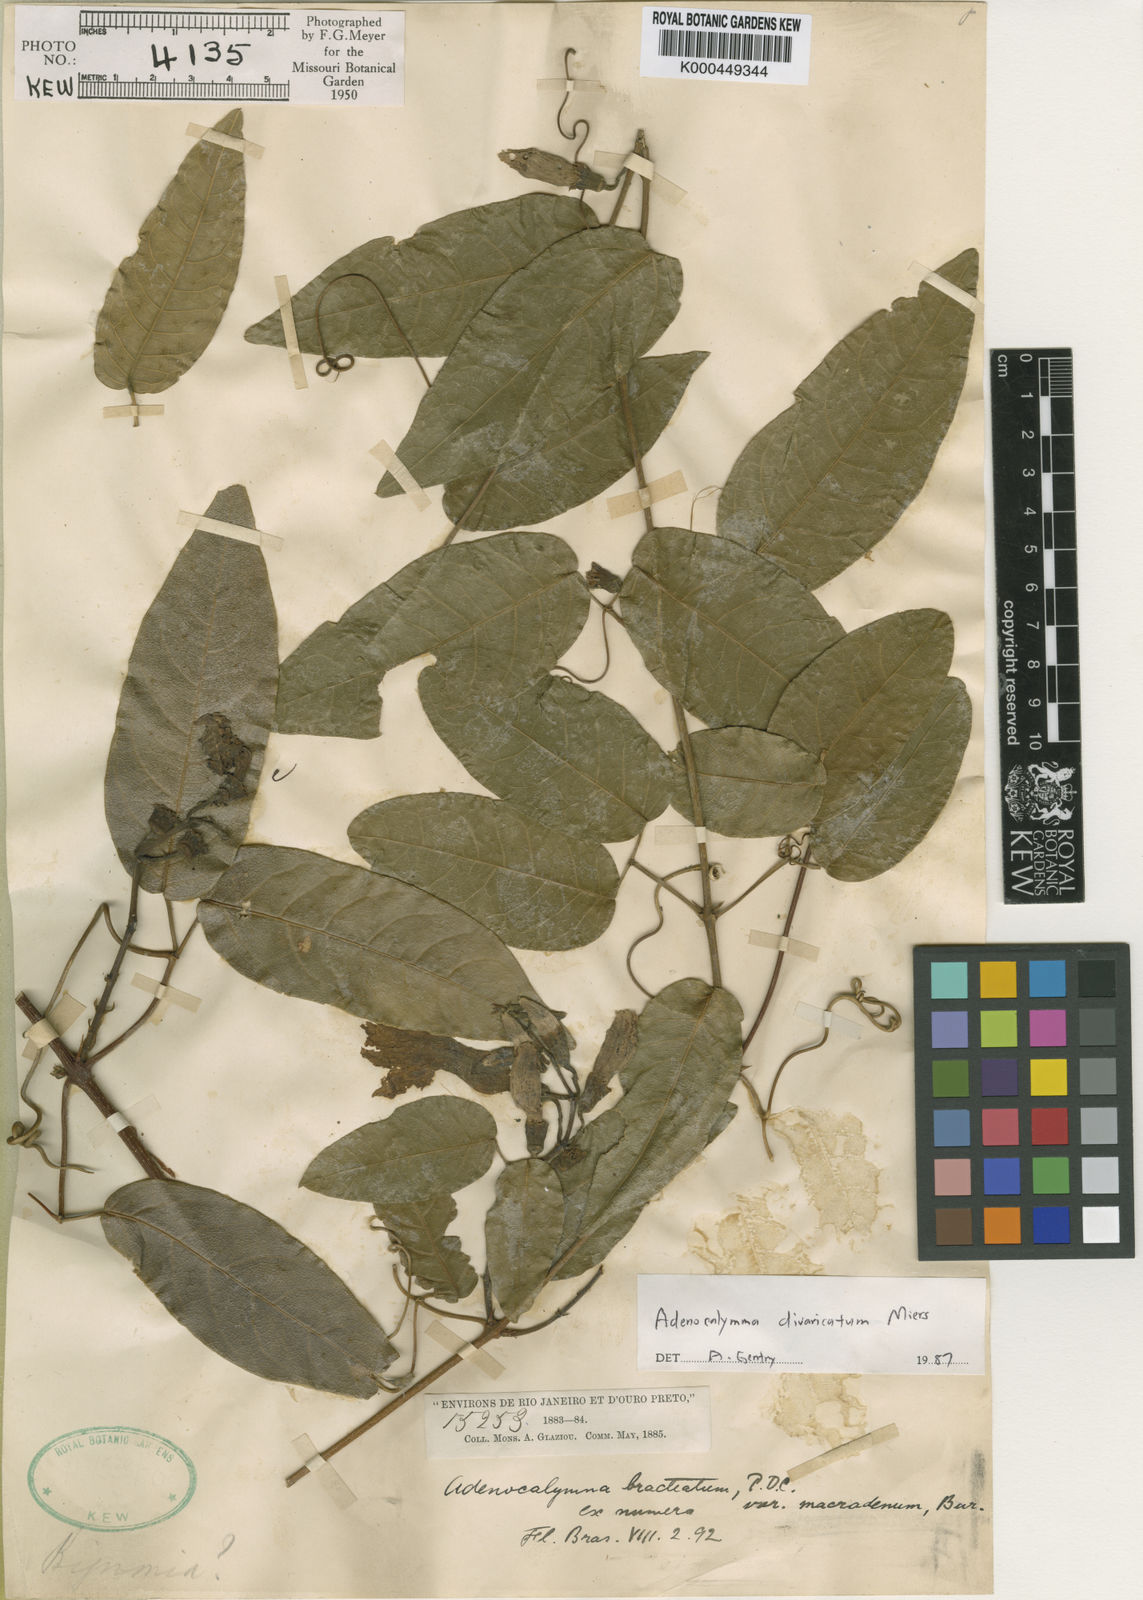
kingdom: Plantae
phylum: Tracheophyta
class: Magnoliopsida
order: Lamiales
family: Bignoniaceae
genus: Adenocalymma
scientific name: Adenocalymma divaricatum
